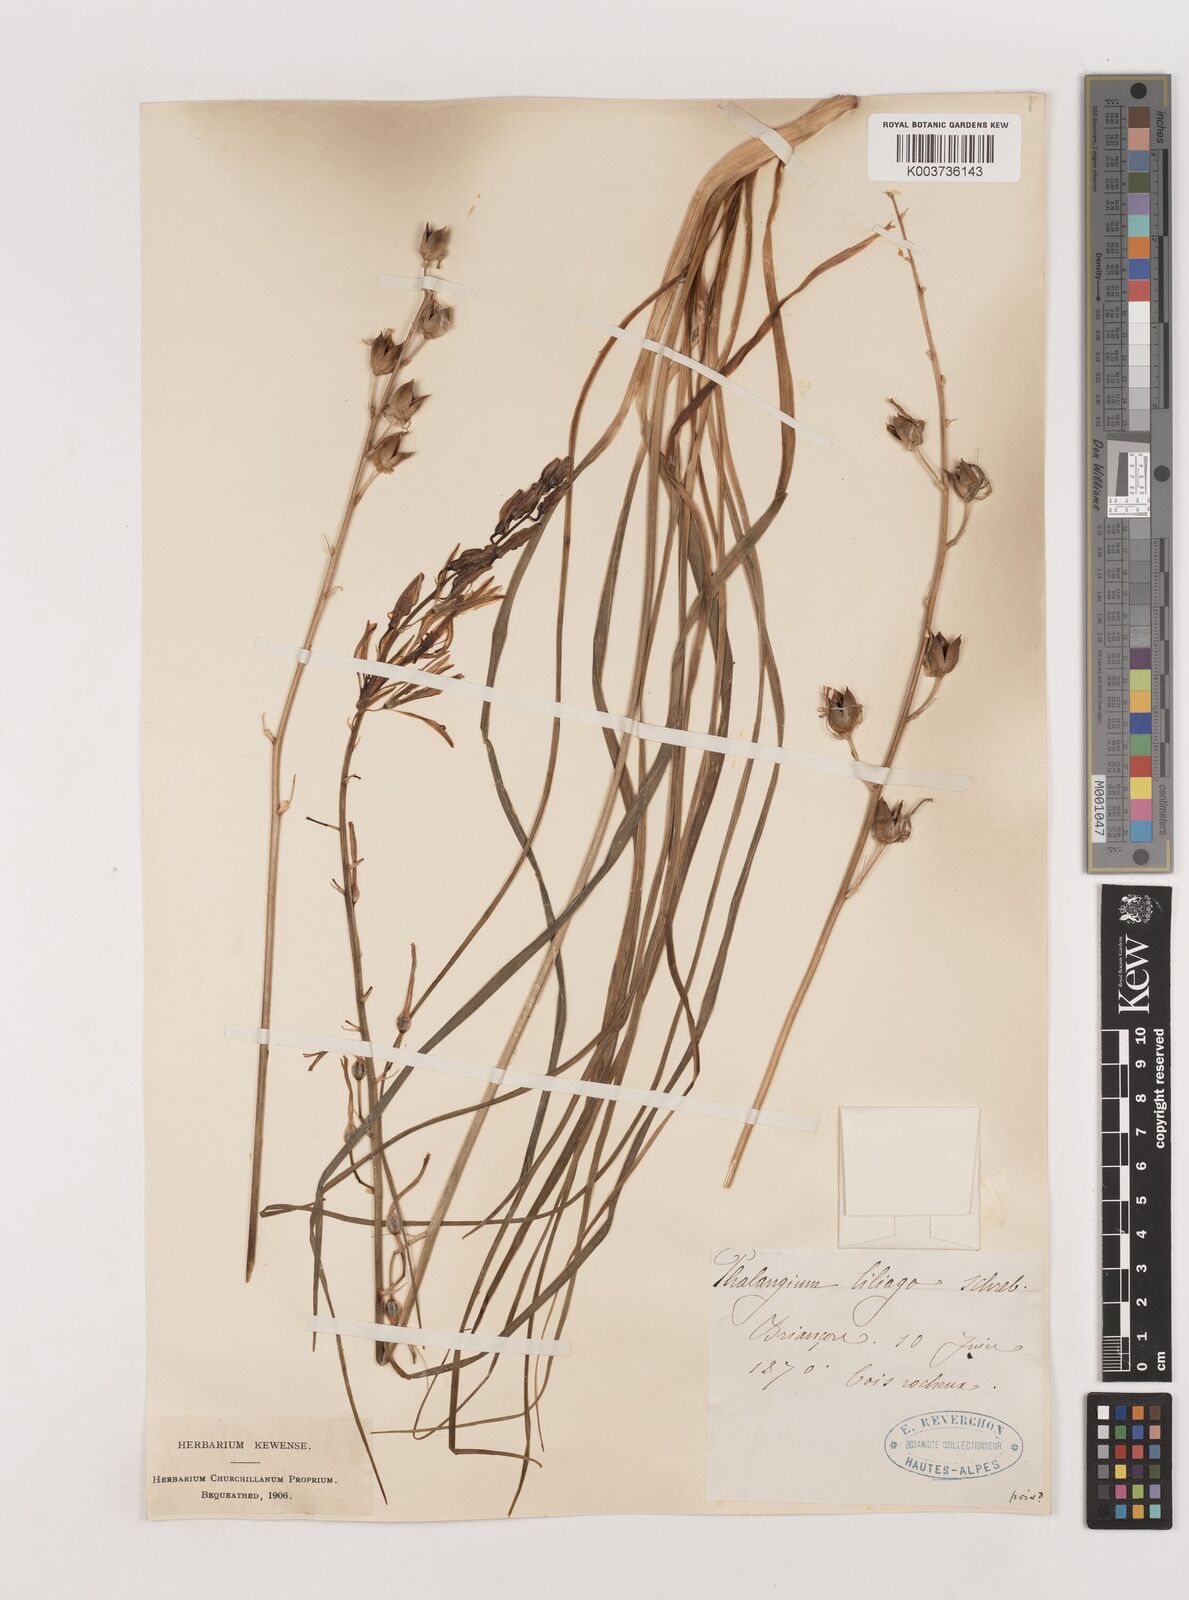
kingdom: Plantae
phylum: Tracheophyta
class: Liliopsida
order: Asparagales
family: Asparagaceae
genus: Anthericum
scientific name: Anthericum liliago
